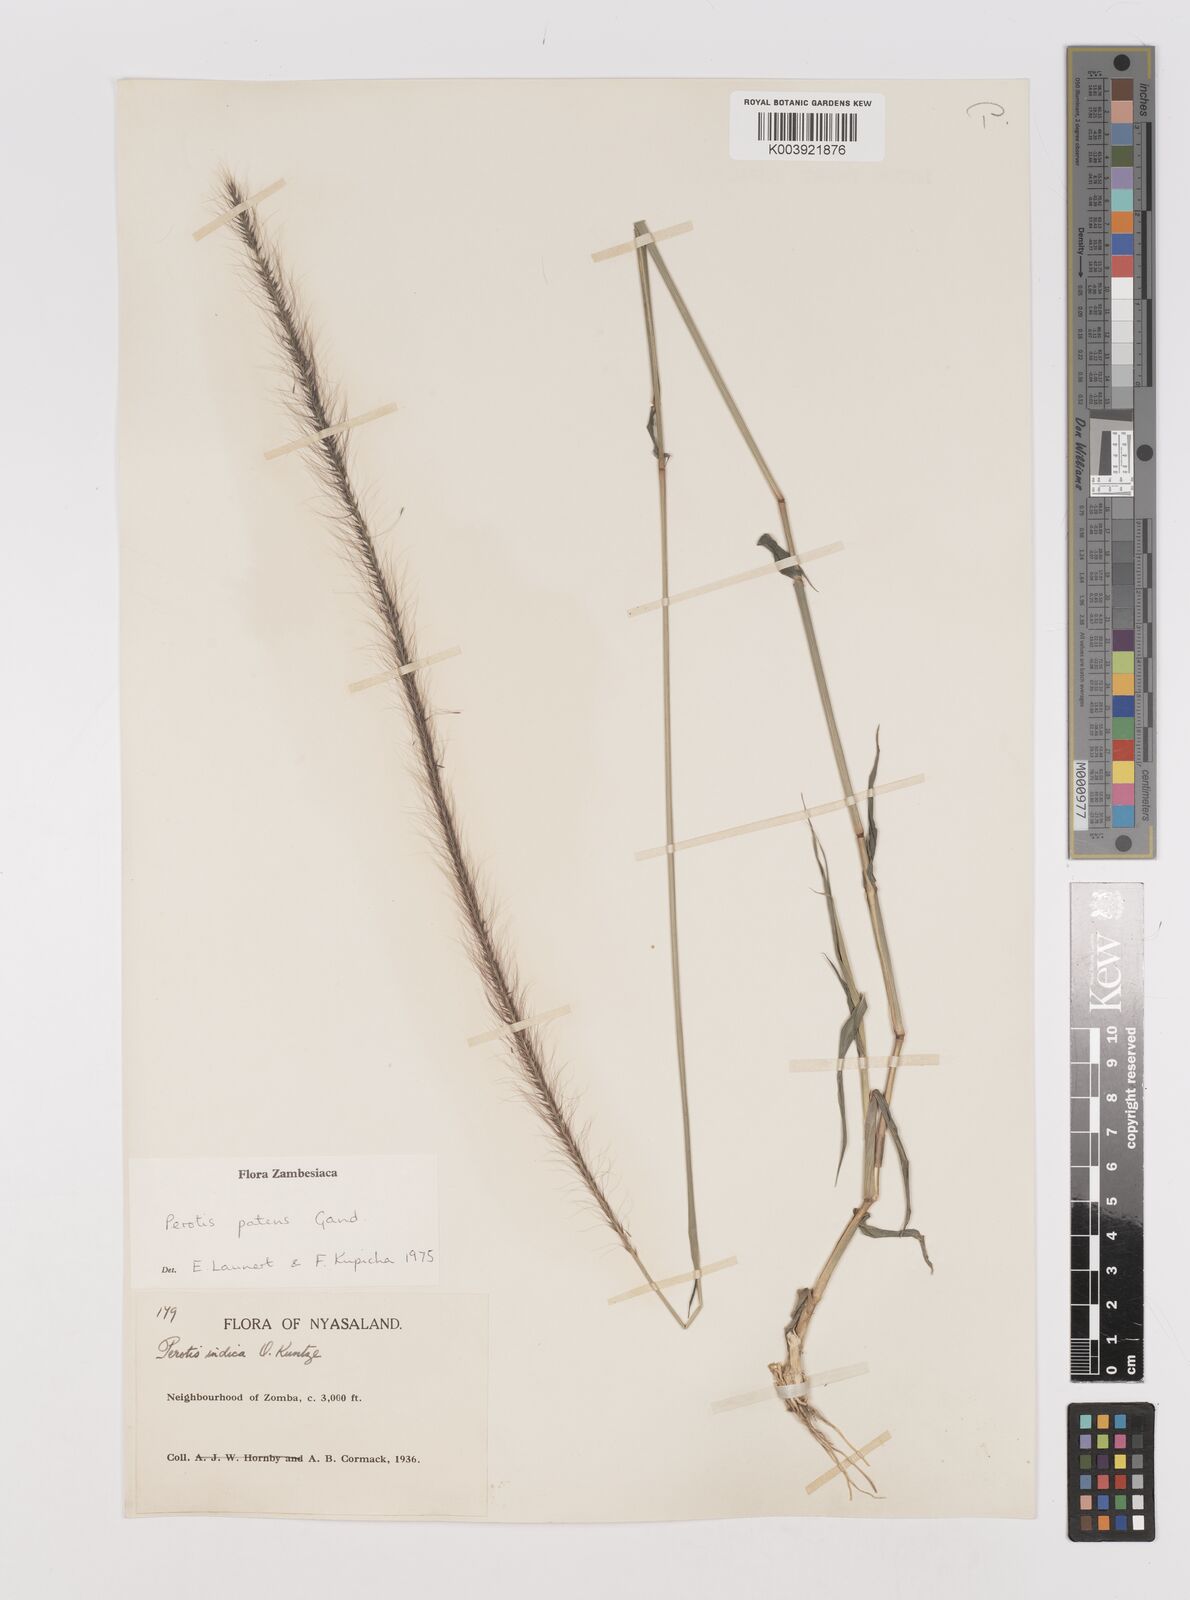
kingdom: Plantae
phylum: Tracheophyta
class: Liliopsida
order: Poales
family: Poaceae
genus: Perotis
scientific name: Perotis patens
